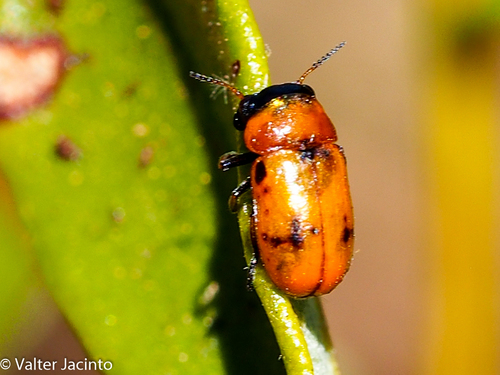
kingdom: Animalia
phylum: Arthropoda
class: Insecta
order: Coleoptera
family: Chrysomelidae
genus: Coptocephala
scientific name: Coptocephala
